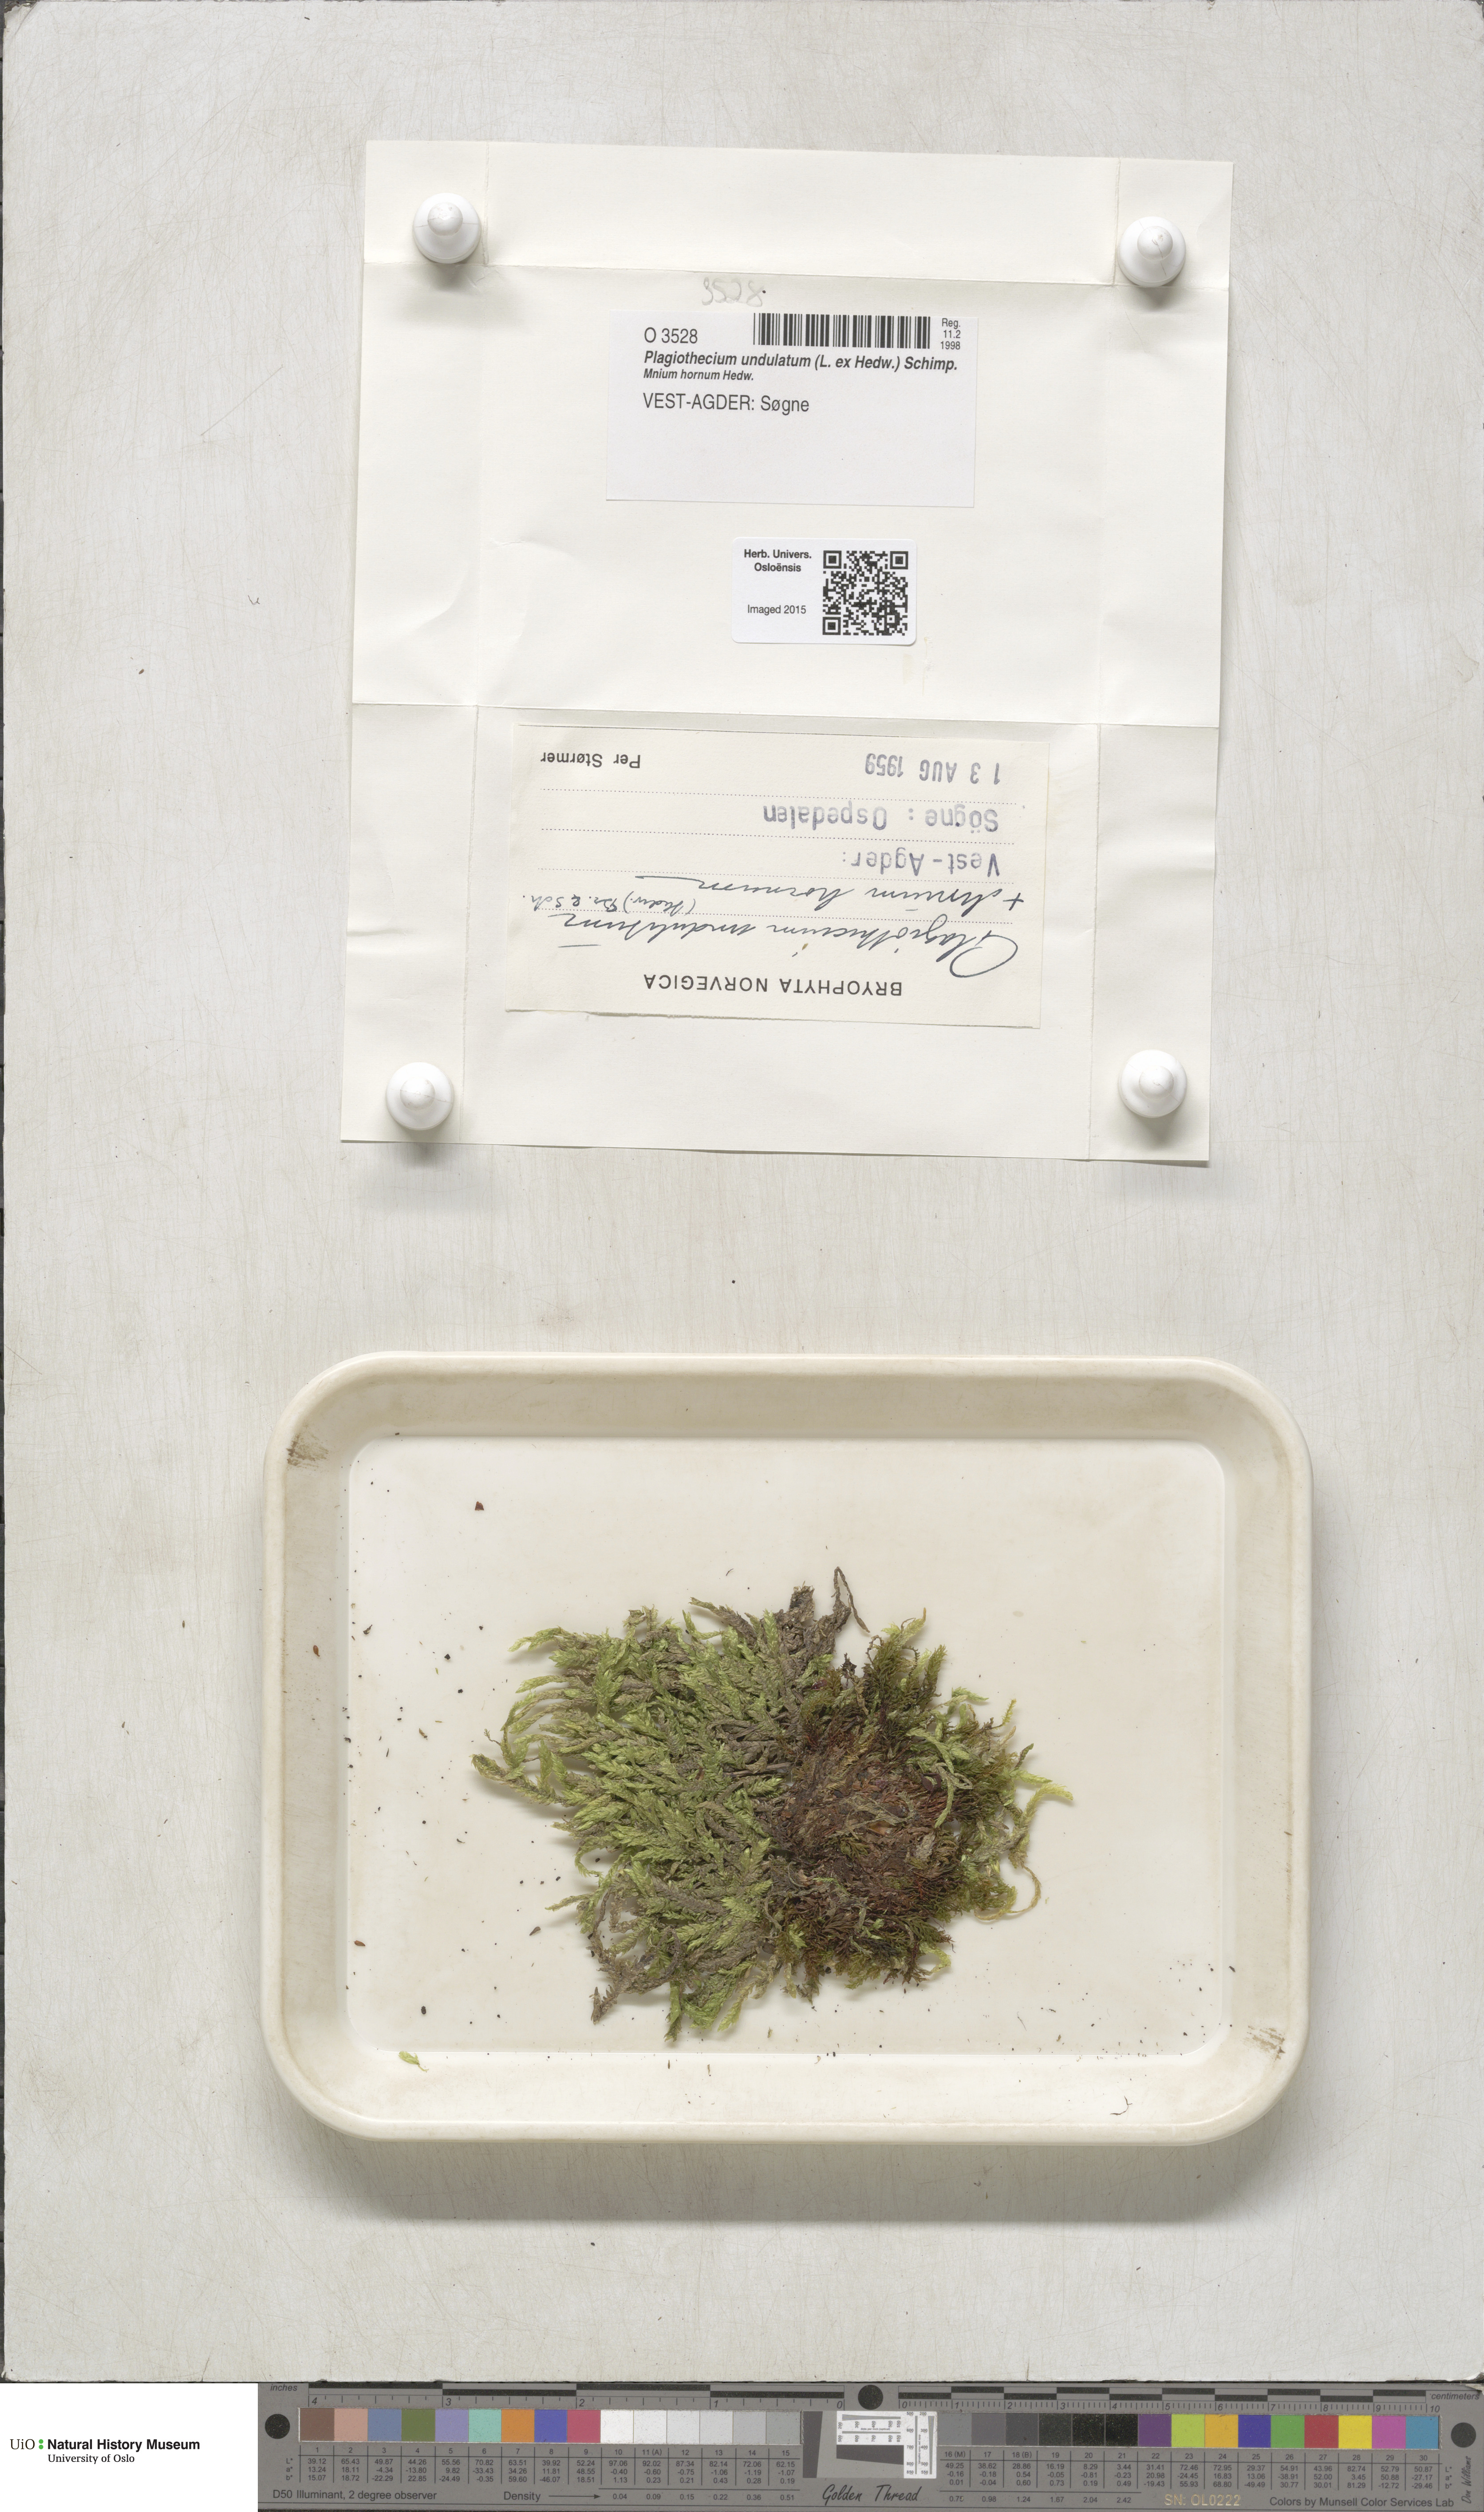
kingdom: Plantae
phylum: Bryophyta
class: Bryopsida
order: Hypnales
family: Plagiotheciaceae
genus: Plagiothecium
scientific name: Plagiothecium undulatum
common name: Waved silk-moss
